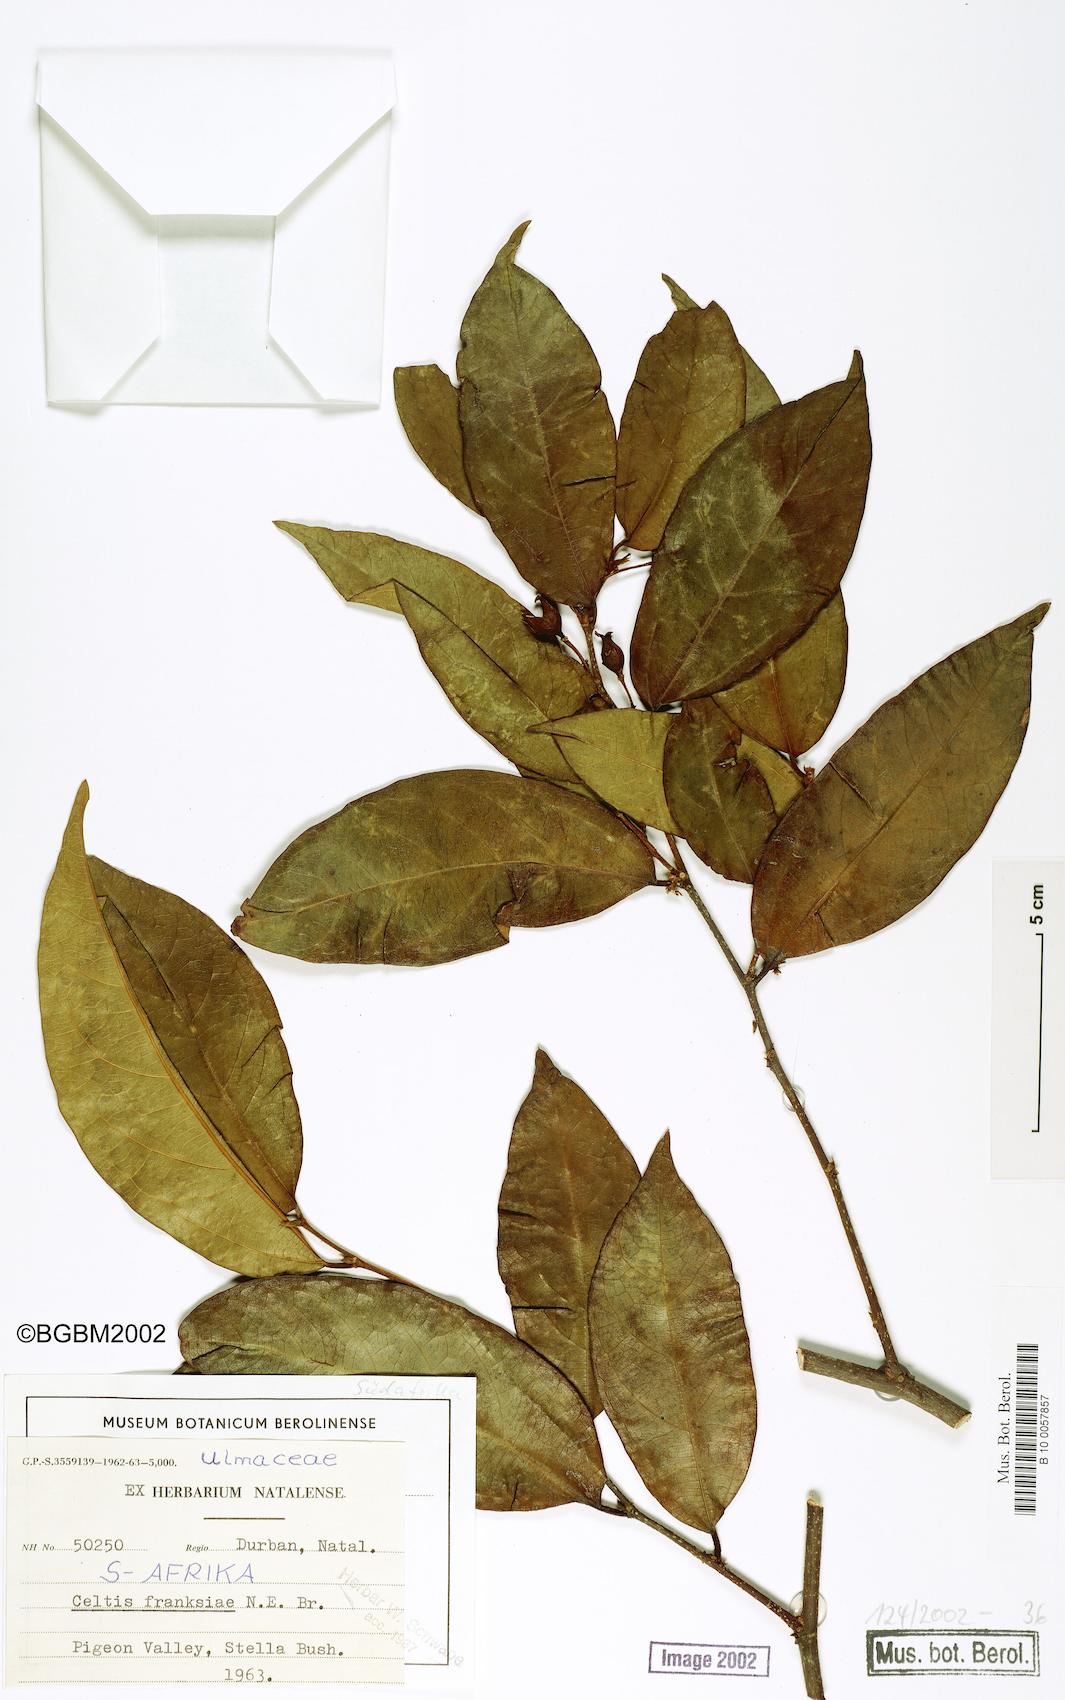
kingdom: Plantae
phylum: Tracheophyta
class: Magnoliopsida
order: Rosales
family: Cannabaceae
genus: Celtis
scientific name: Celtis mildbraedii
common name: Red-fruited stinkwood
